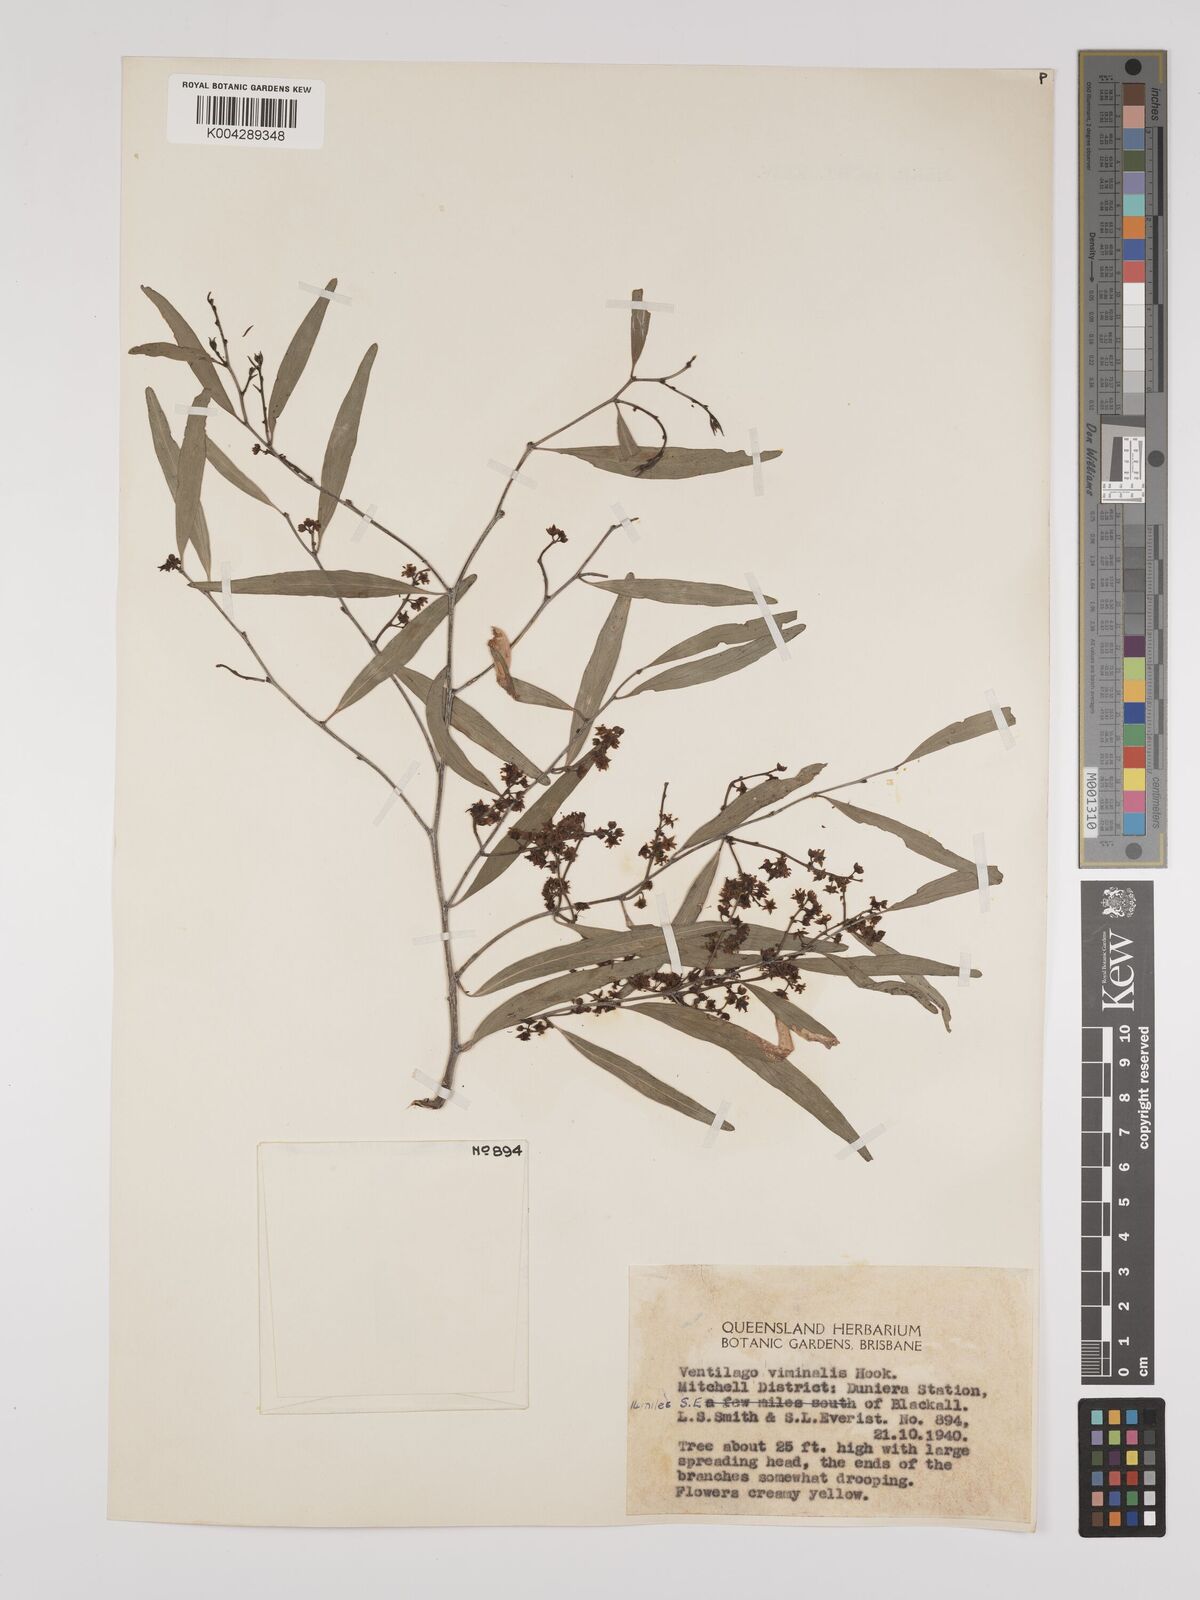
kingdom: Plantae
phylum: Tracheophyta
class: Magnoliopsida
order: Rosales
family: Rhamnaceae
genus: Ventilago
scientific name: Ventilago viminalis
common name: Medicine-bark
